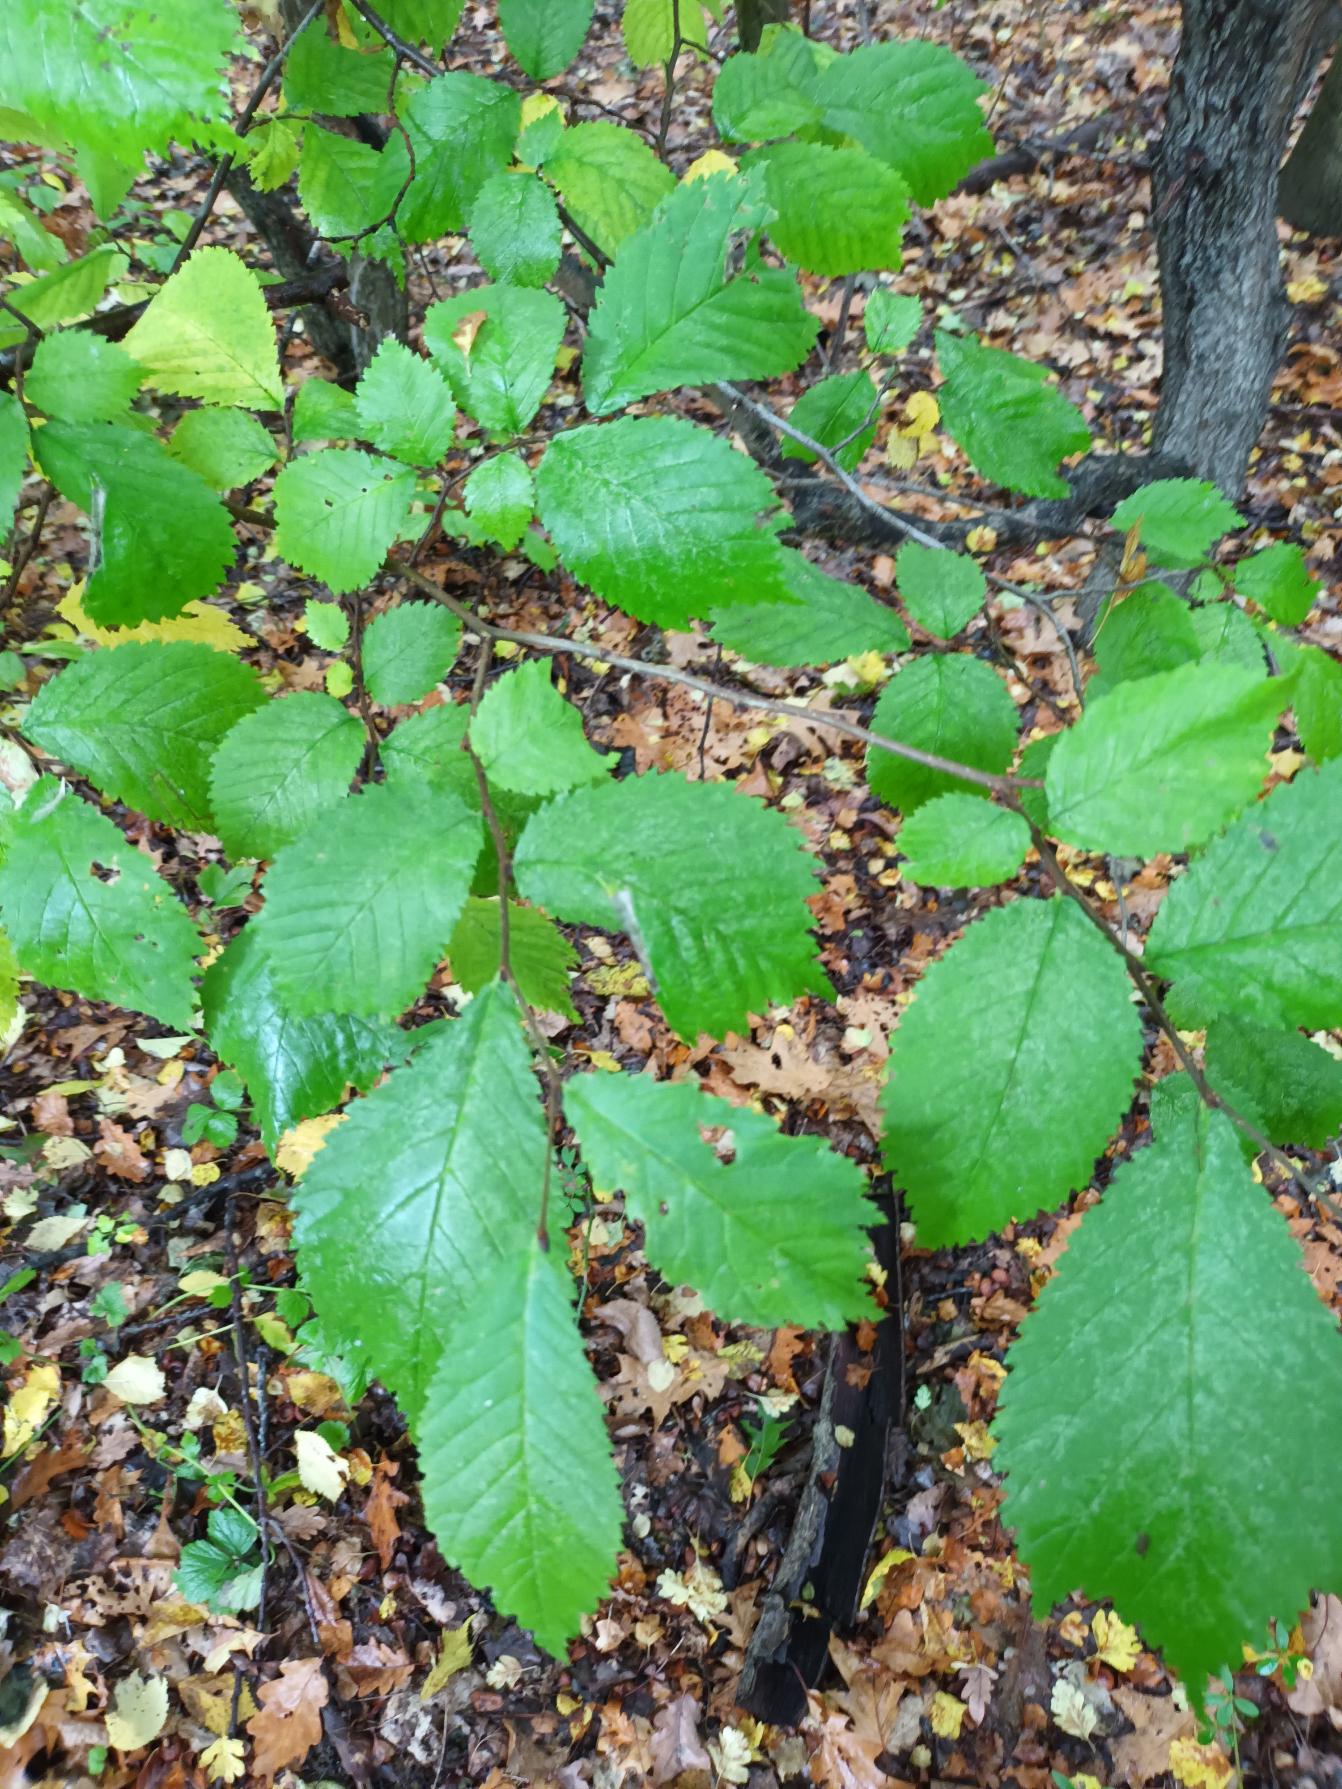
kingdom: Plantae
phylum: Tracheophyta
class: Magnoliopsida
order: Rosales
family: Ulmaceae
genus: Ulmus
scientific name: Ulmus glabra
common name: Skov-elm/storbladet elm
